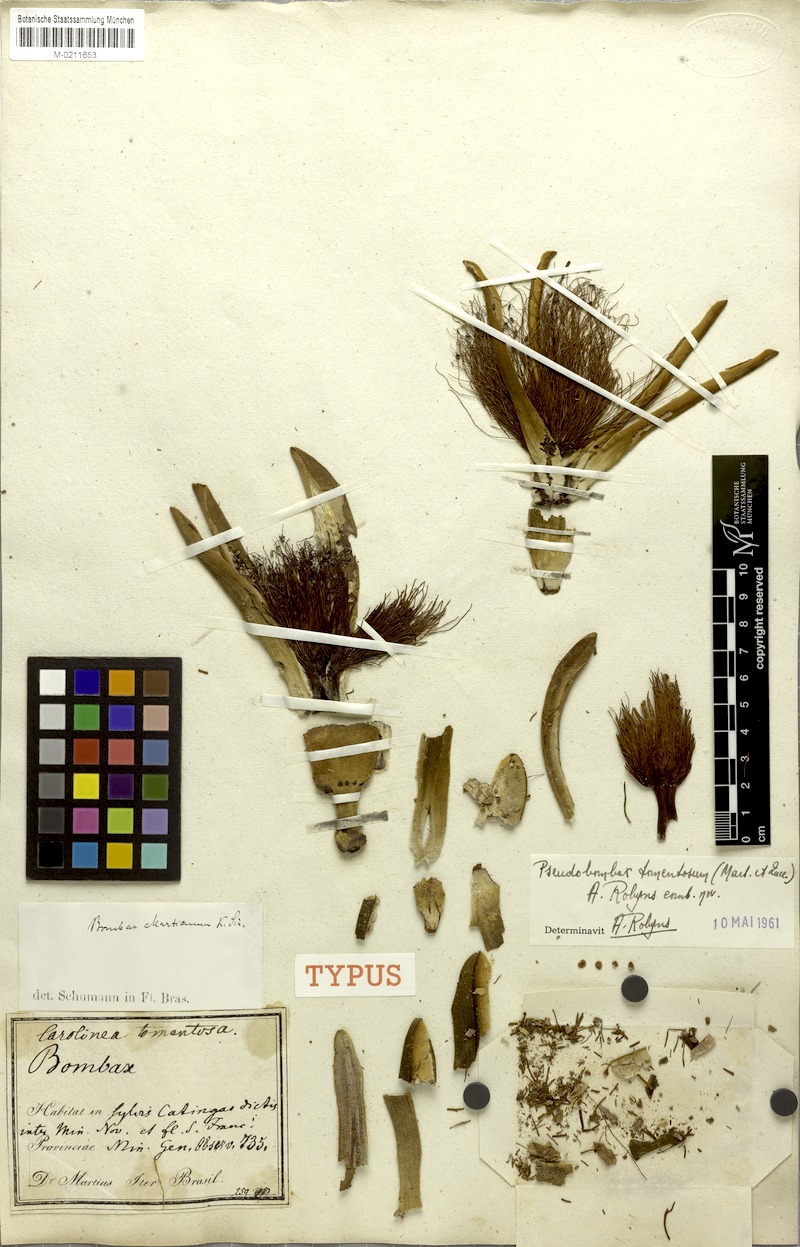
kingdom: Plantae
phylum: Tracheophyta
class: Magnoliopsida
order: Malvales
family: Malvaceae
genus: Pseudobombax
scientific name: Pseudobombax tomentosum
